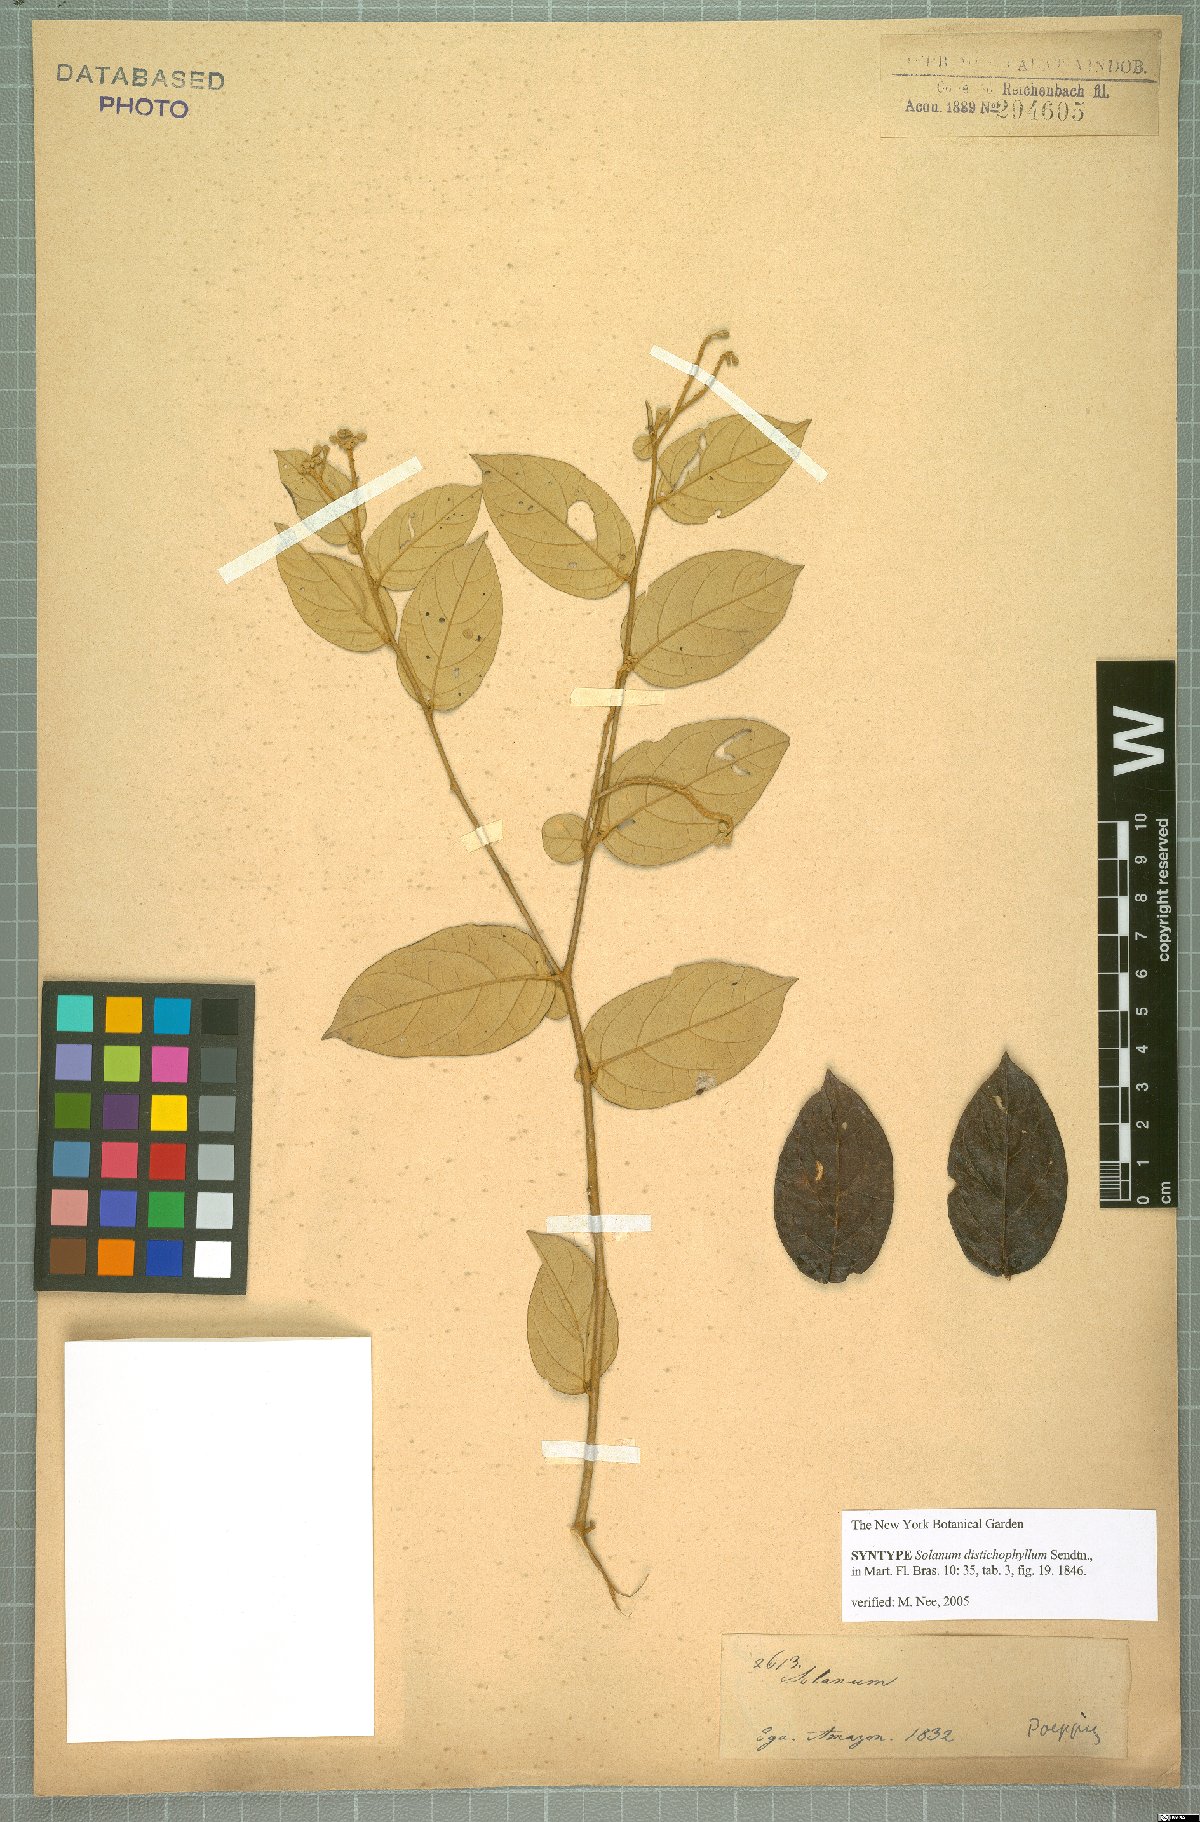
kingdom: Plantae
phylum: Tracheophyta
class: Magnoliopsida
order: Solanales
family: Solanaceae
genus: Solanum
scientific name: Solanum distichophyllum
